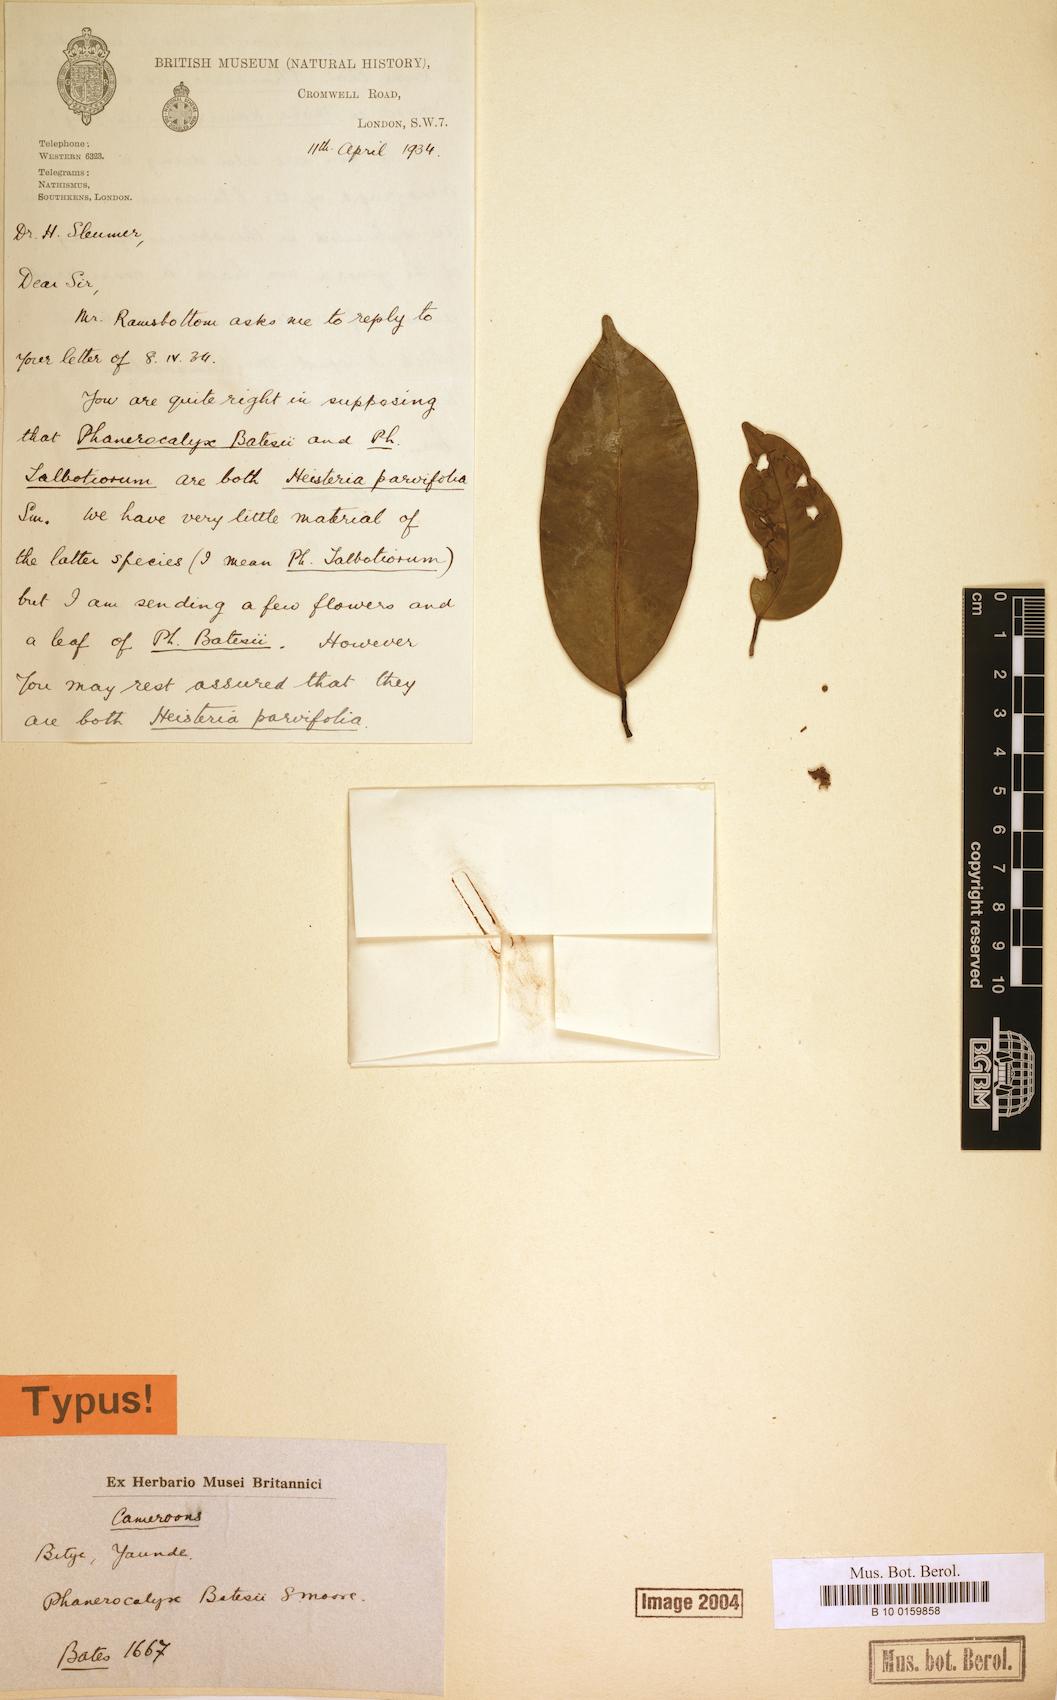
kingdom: Plantae
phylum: Tracheophyta
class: Magnoliopsida
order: Santalales
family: Erythropalaceae
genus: Heisteria
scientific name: Heisteria parvifolia
